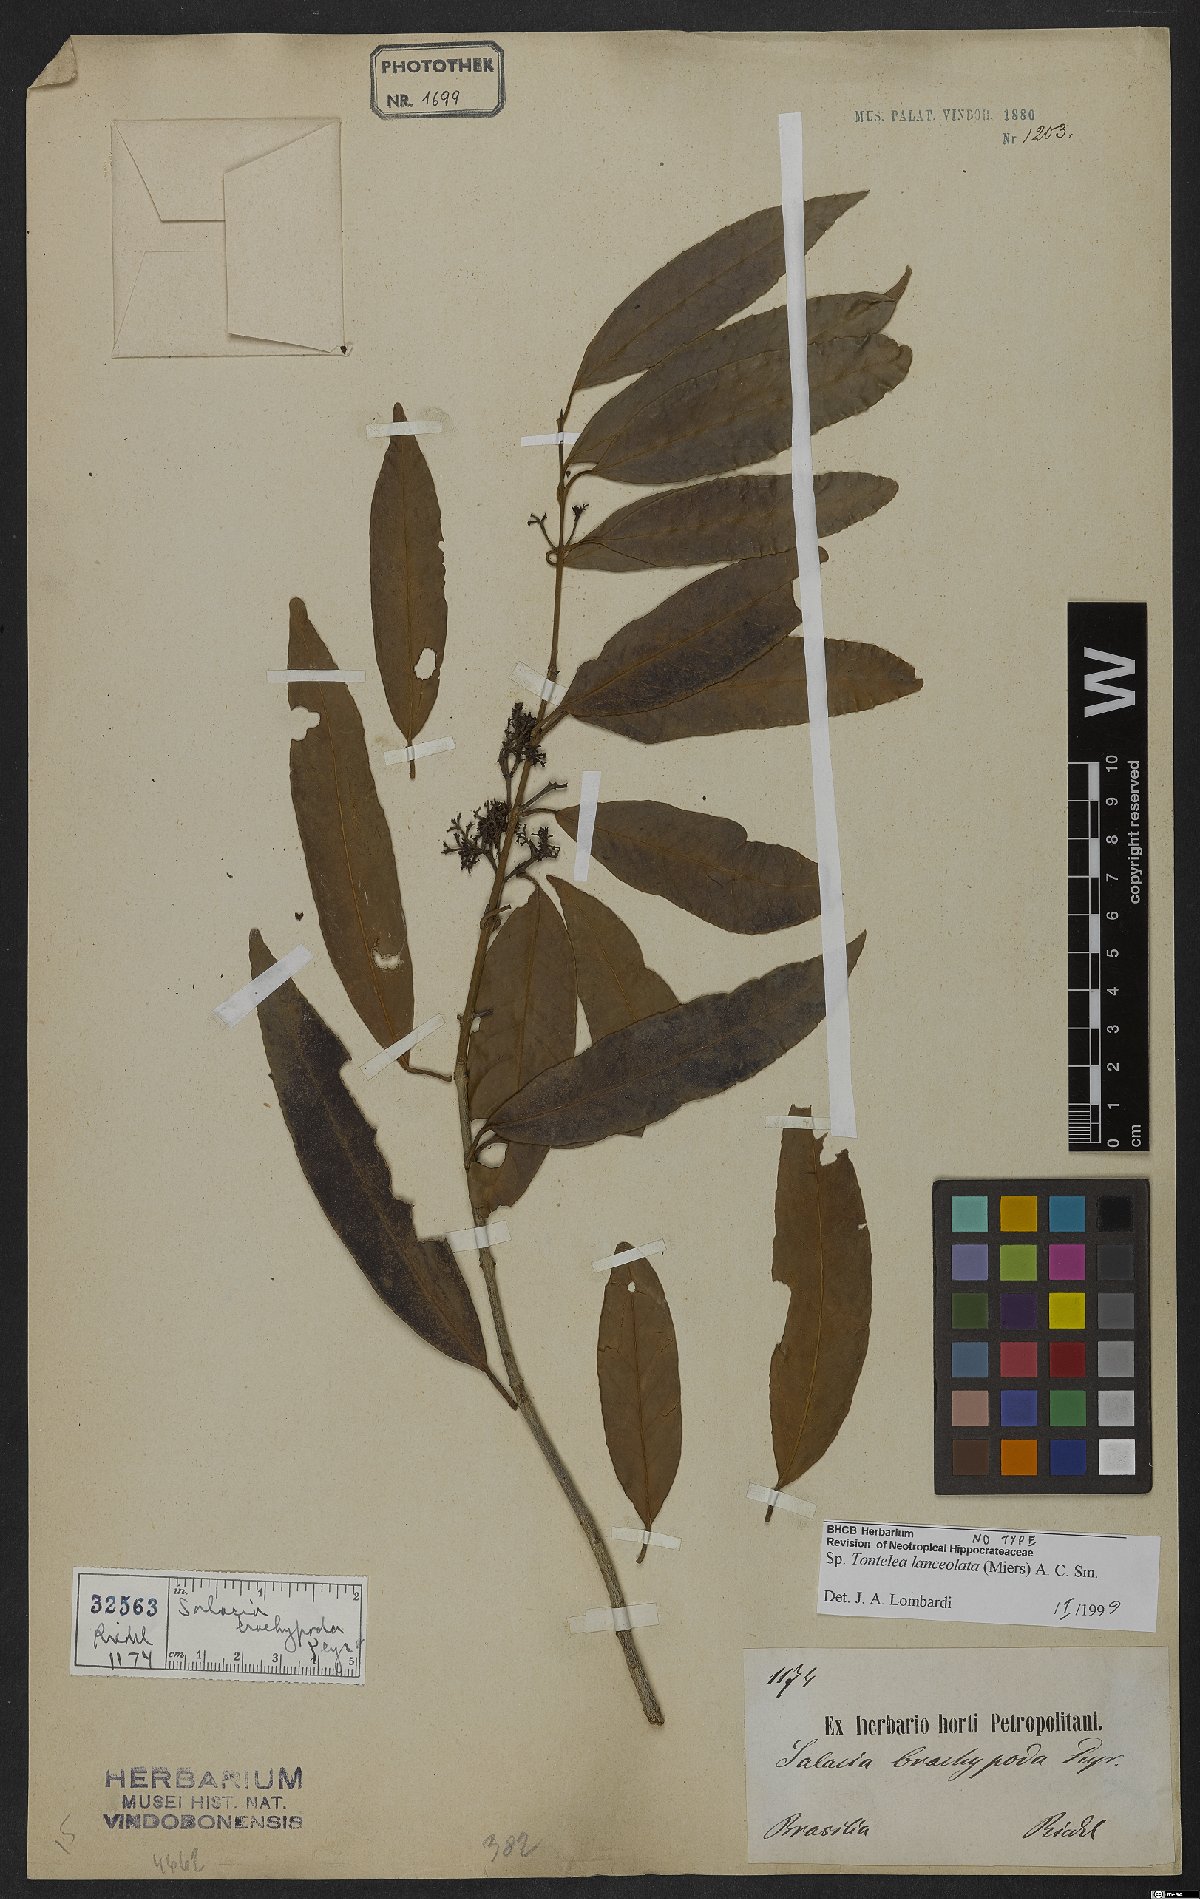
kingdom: Plantae
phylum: Tracheophyta
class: Magnoliopsida
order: Celastrales
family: Celastraceae
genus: Tontelea
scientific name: Tontelea lanceolata
